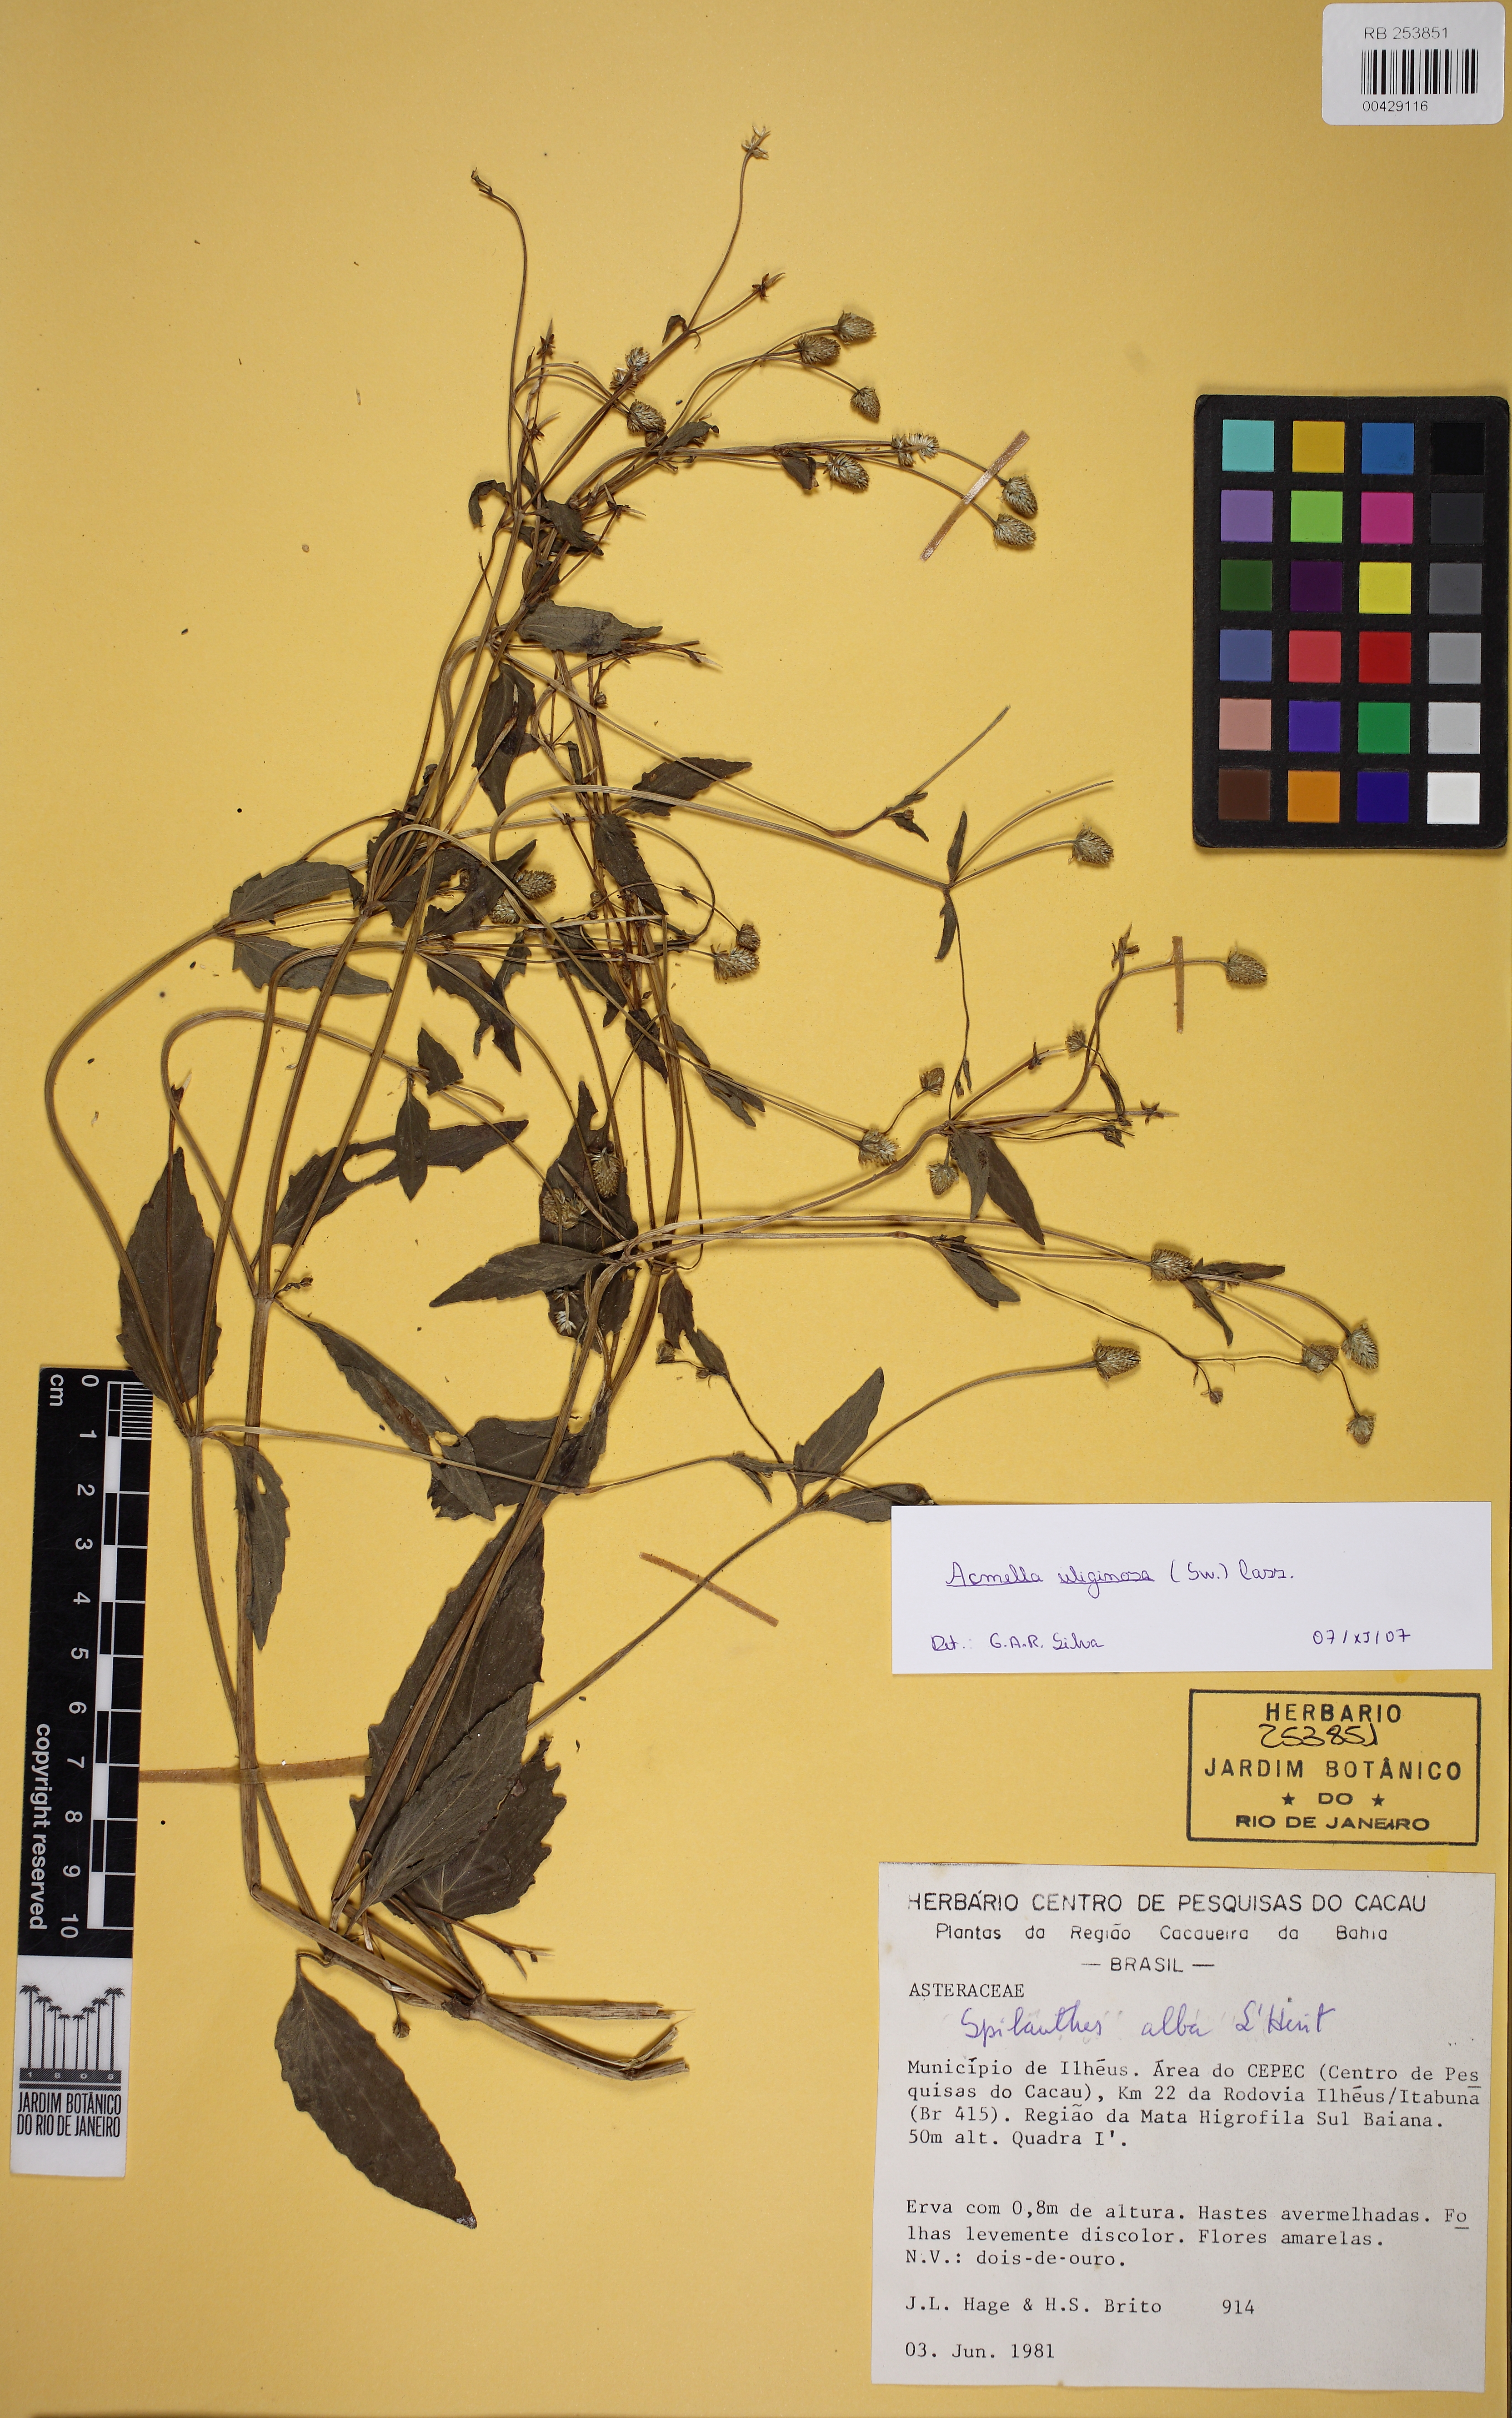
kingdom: Plantae
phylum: Tracheophyta
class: Magnoliopsida
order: Asterales
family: Asteraceae
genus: Acmella
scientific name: Acmella uliginosa
